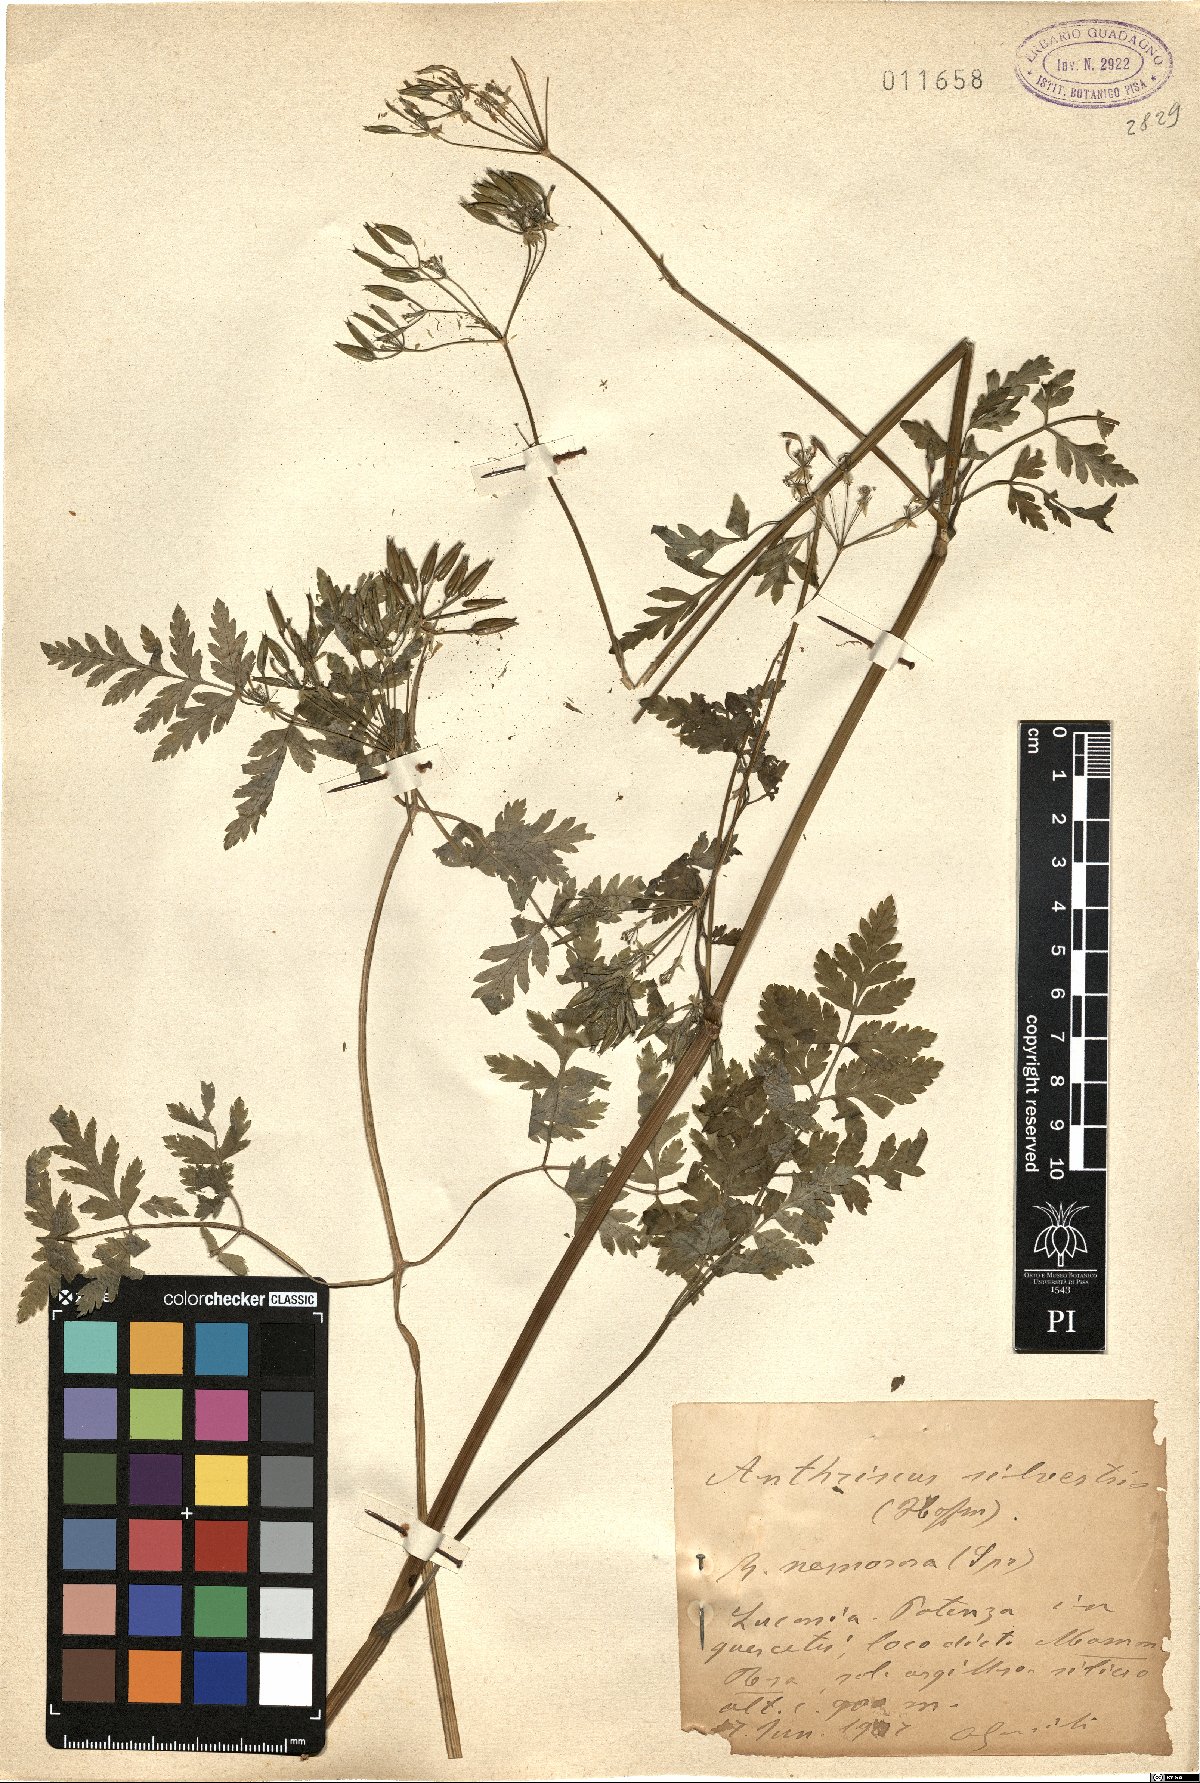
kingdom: Plantae
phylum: Tracheophyta
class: Magnoliopsida
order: Apiales
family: Apiaceae
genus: Anthriscus
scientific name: Anthriscus sylvestris
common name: Cow parsley
